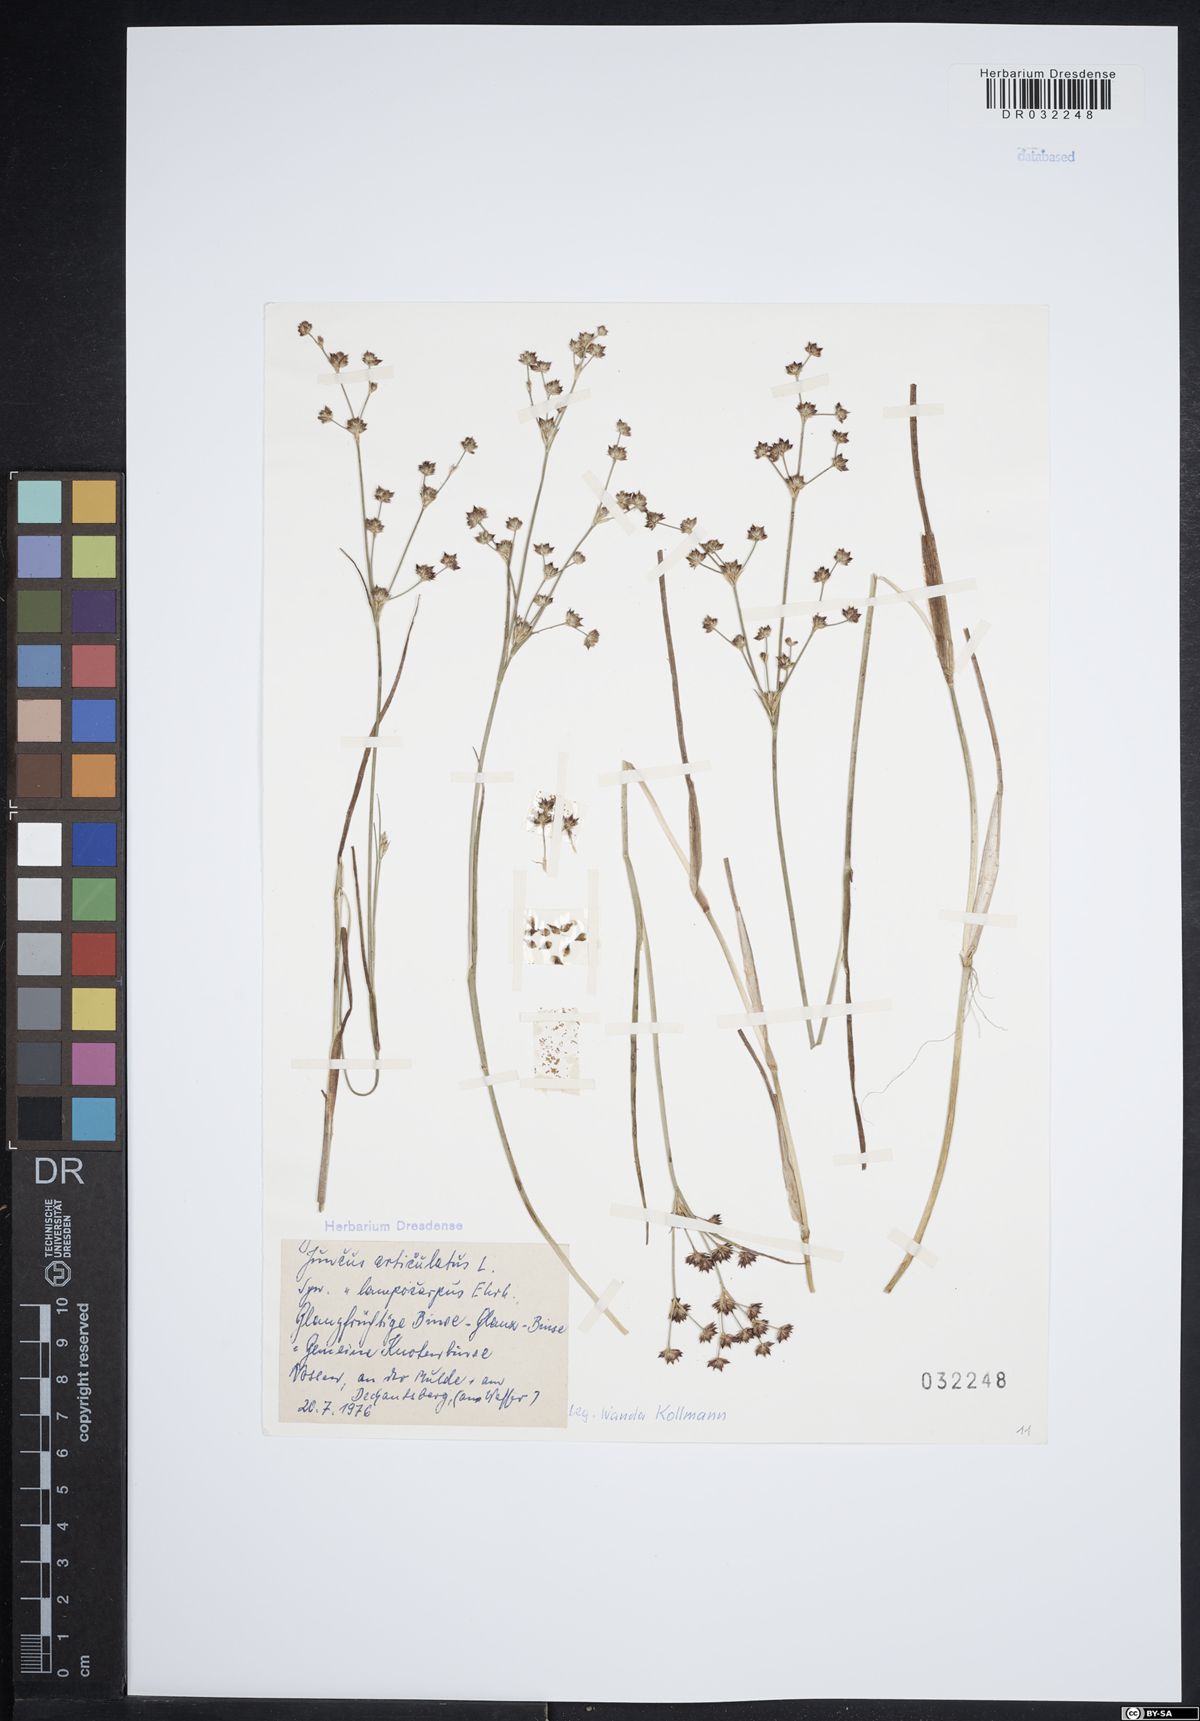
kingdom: Plantae
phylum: Tracheophyta
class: Liliopsida
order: Poales
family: Juncaceae
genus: Juncus
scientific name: Juncus articulatus
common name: Jointed rush
